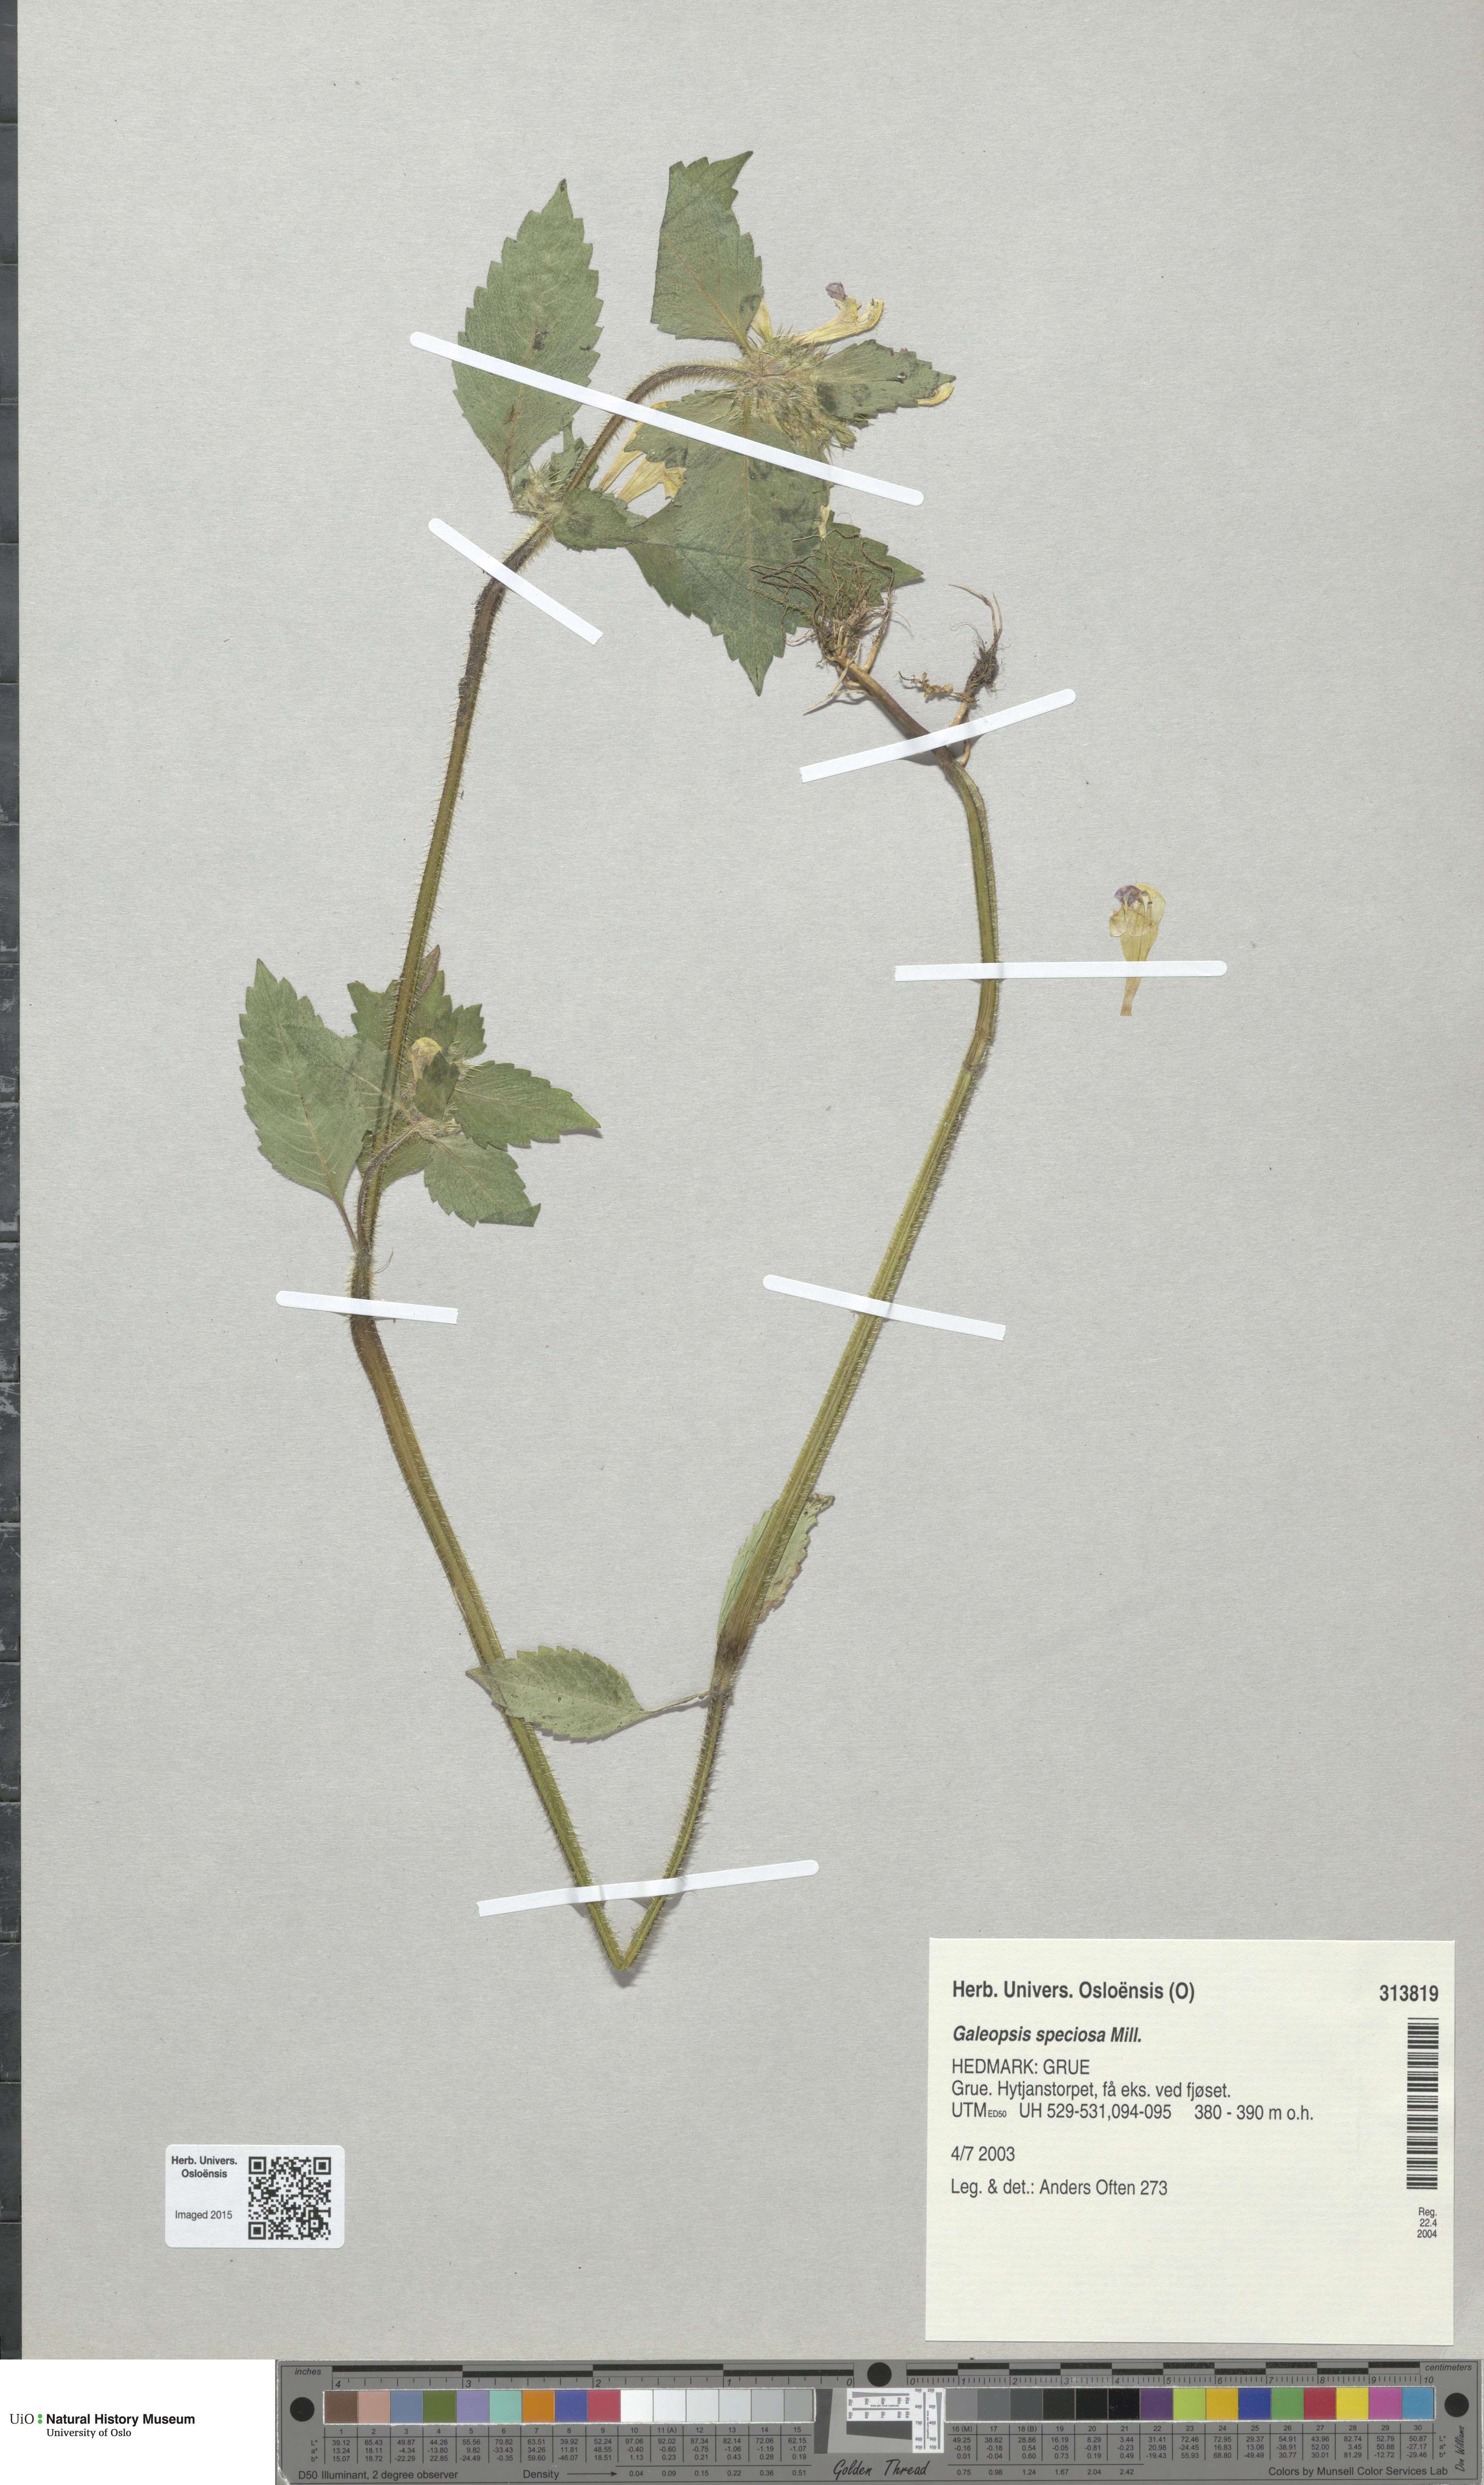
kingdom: Plantae
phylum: Tracheophyta
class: Magnoliopsida
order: Lamiales
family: Lamiaceae
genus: Galeopsis
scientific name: Galeopsis speciosa
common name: Large-flowered hemp-nettle
